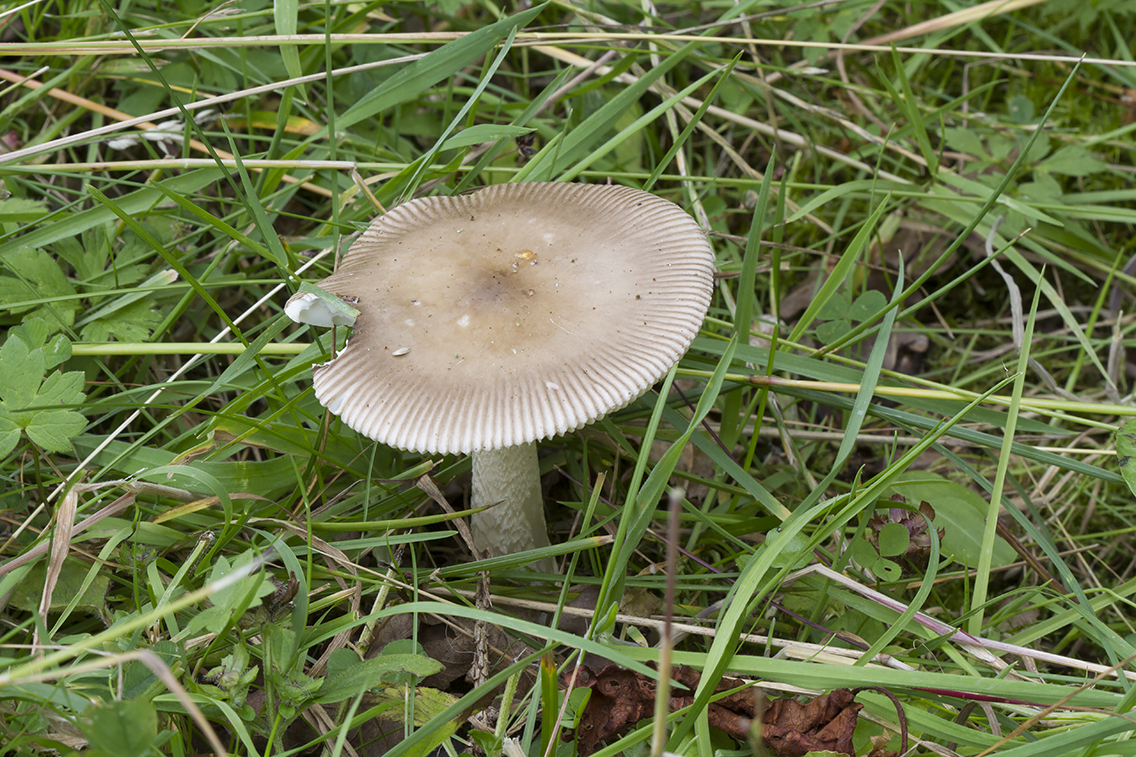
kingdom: Fungi
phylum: Basidiomycota
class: Agaricomycetes
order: Agaricales
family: Amanitaceae
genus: Amanita
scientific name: Amanita lividopallescens
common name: afblegende kam-fluesvamp
